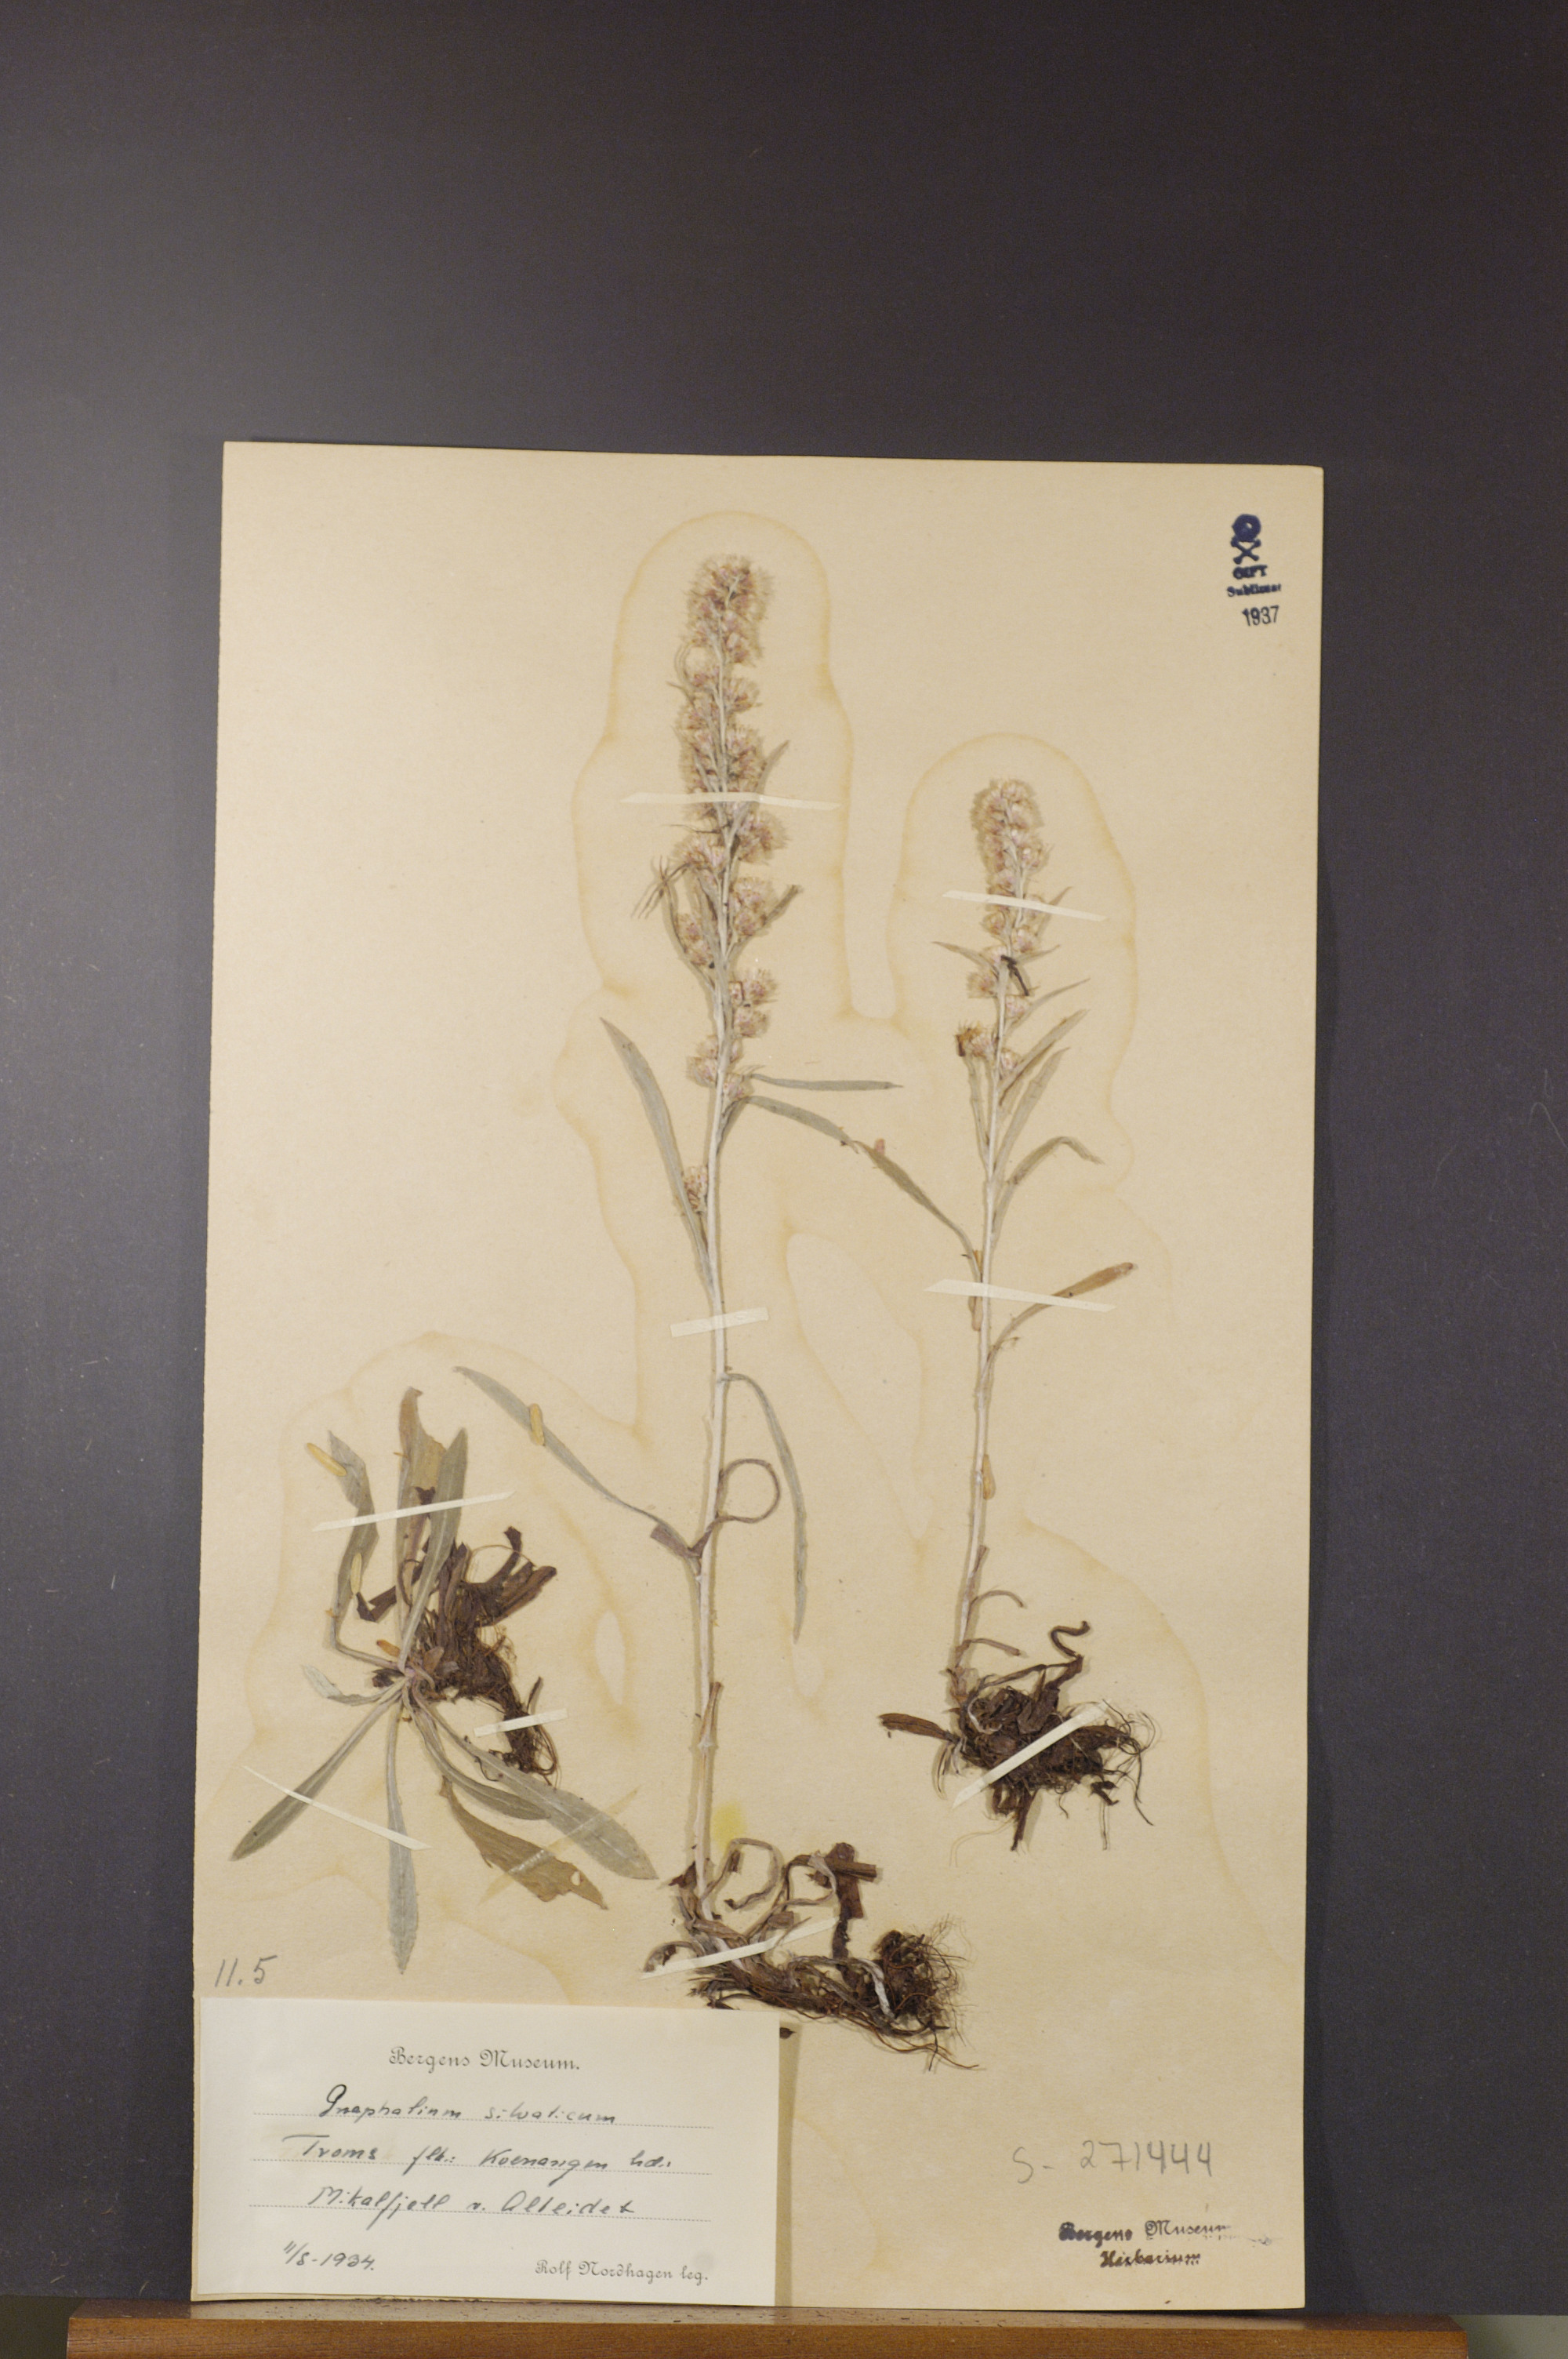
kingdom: Plantae
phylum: Tracheophyta
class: Magnoliopsida
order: Asterales
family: Asteraceae
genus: Omalotheca
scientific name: Omalotheca sylvatica
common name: Heath cudweed
